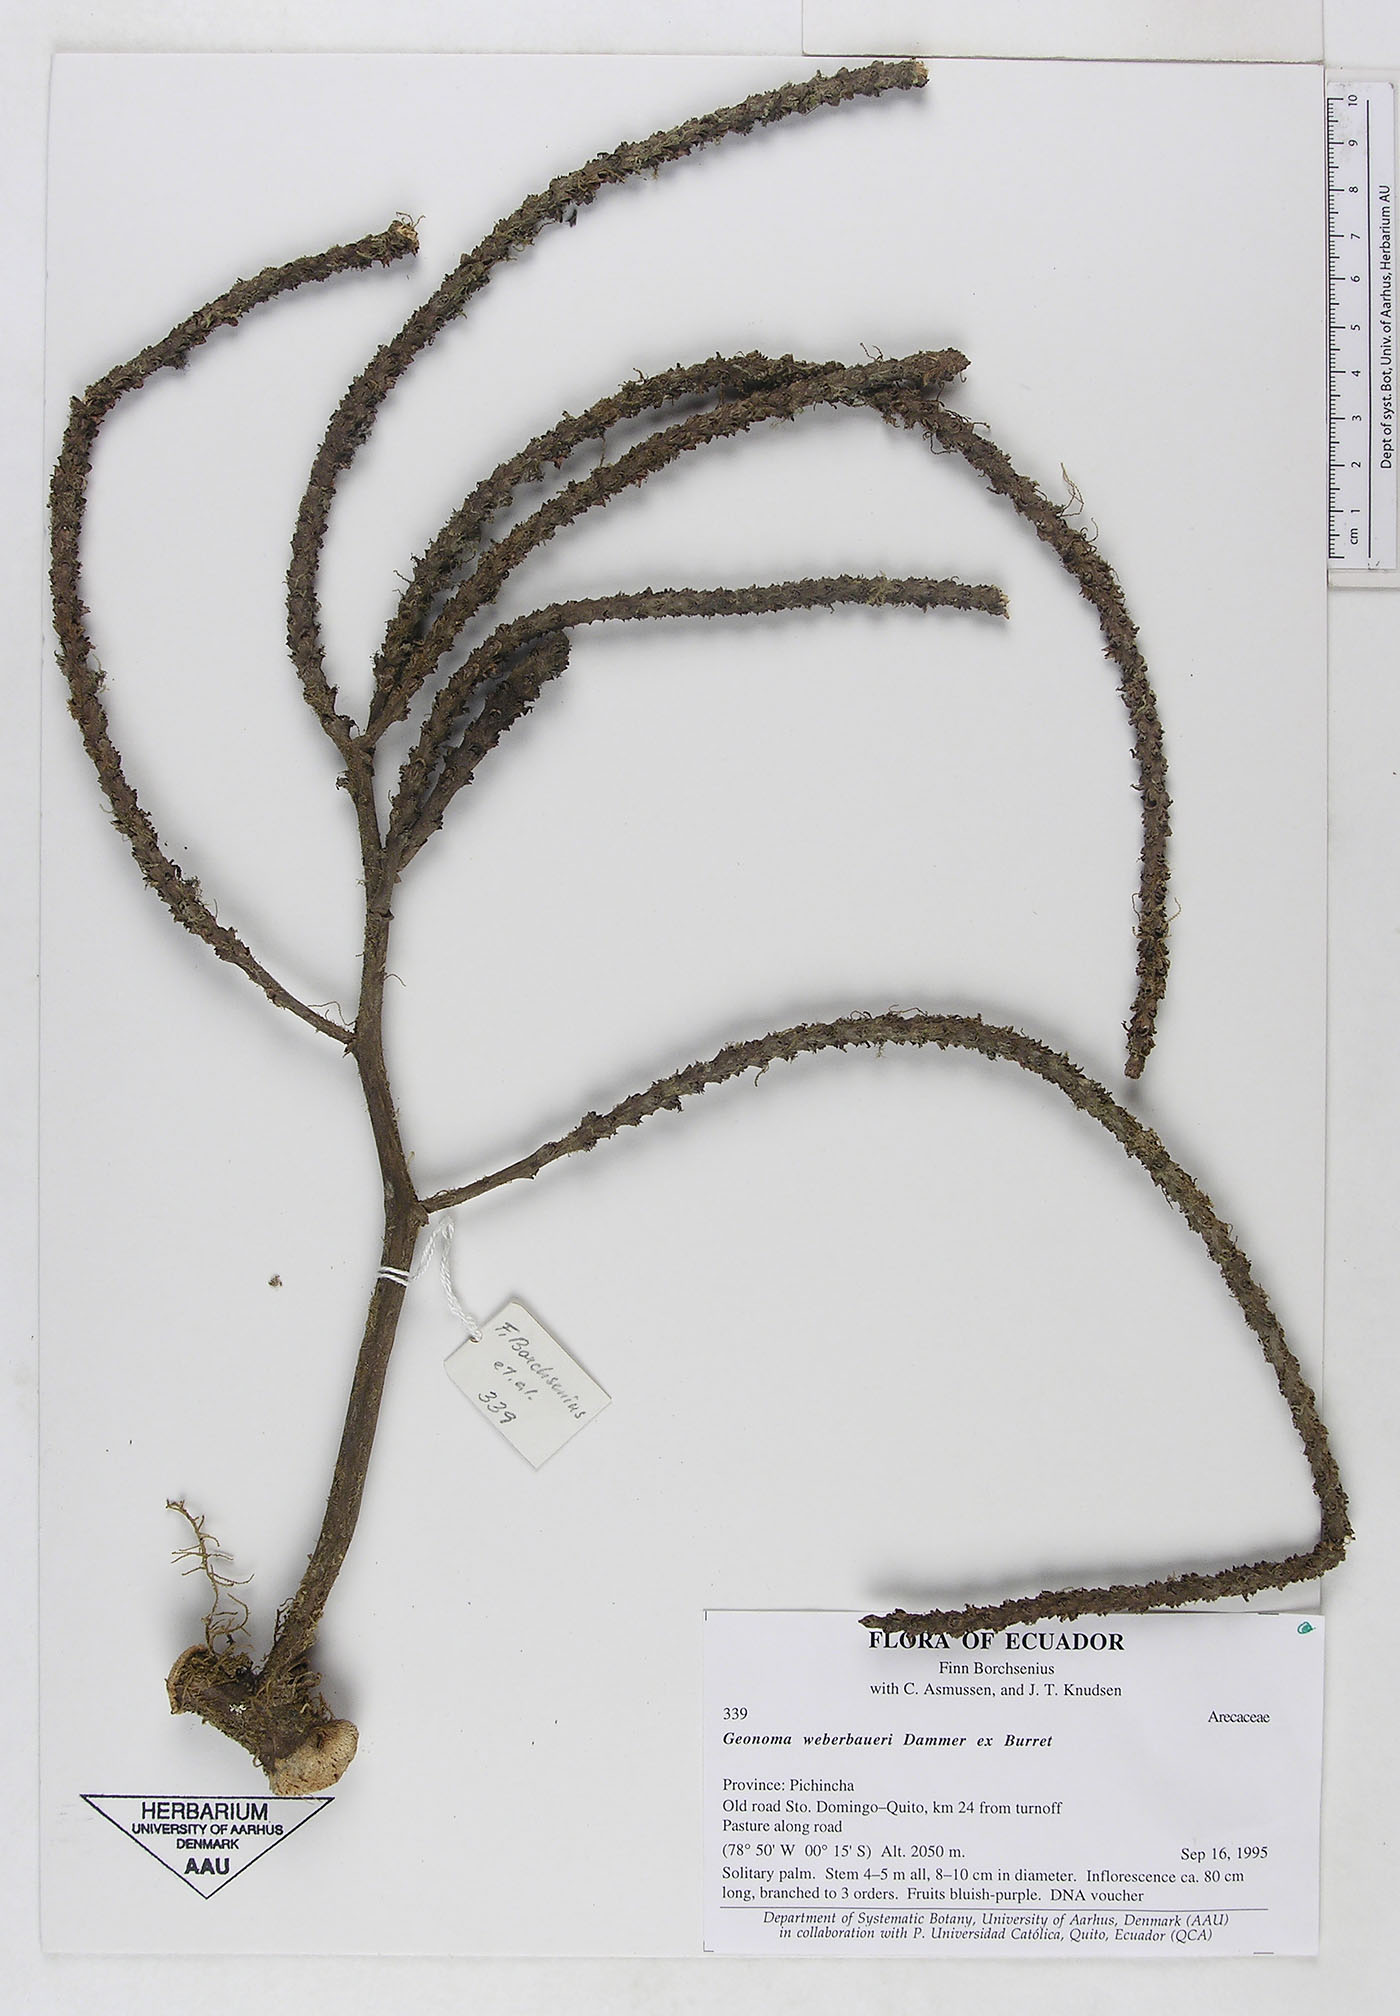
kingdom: Plantae
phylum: Tracheophyta
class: Liliopsida
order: Arecales
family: Arecaceae
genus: Geonoma
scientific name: Geonoma undata
